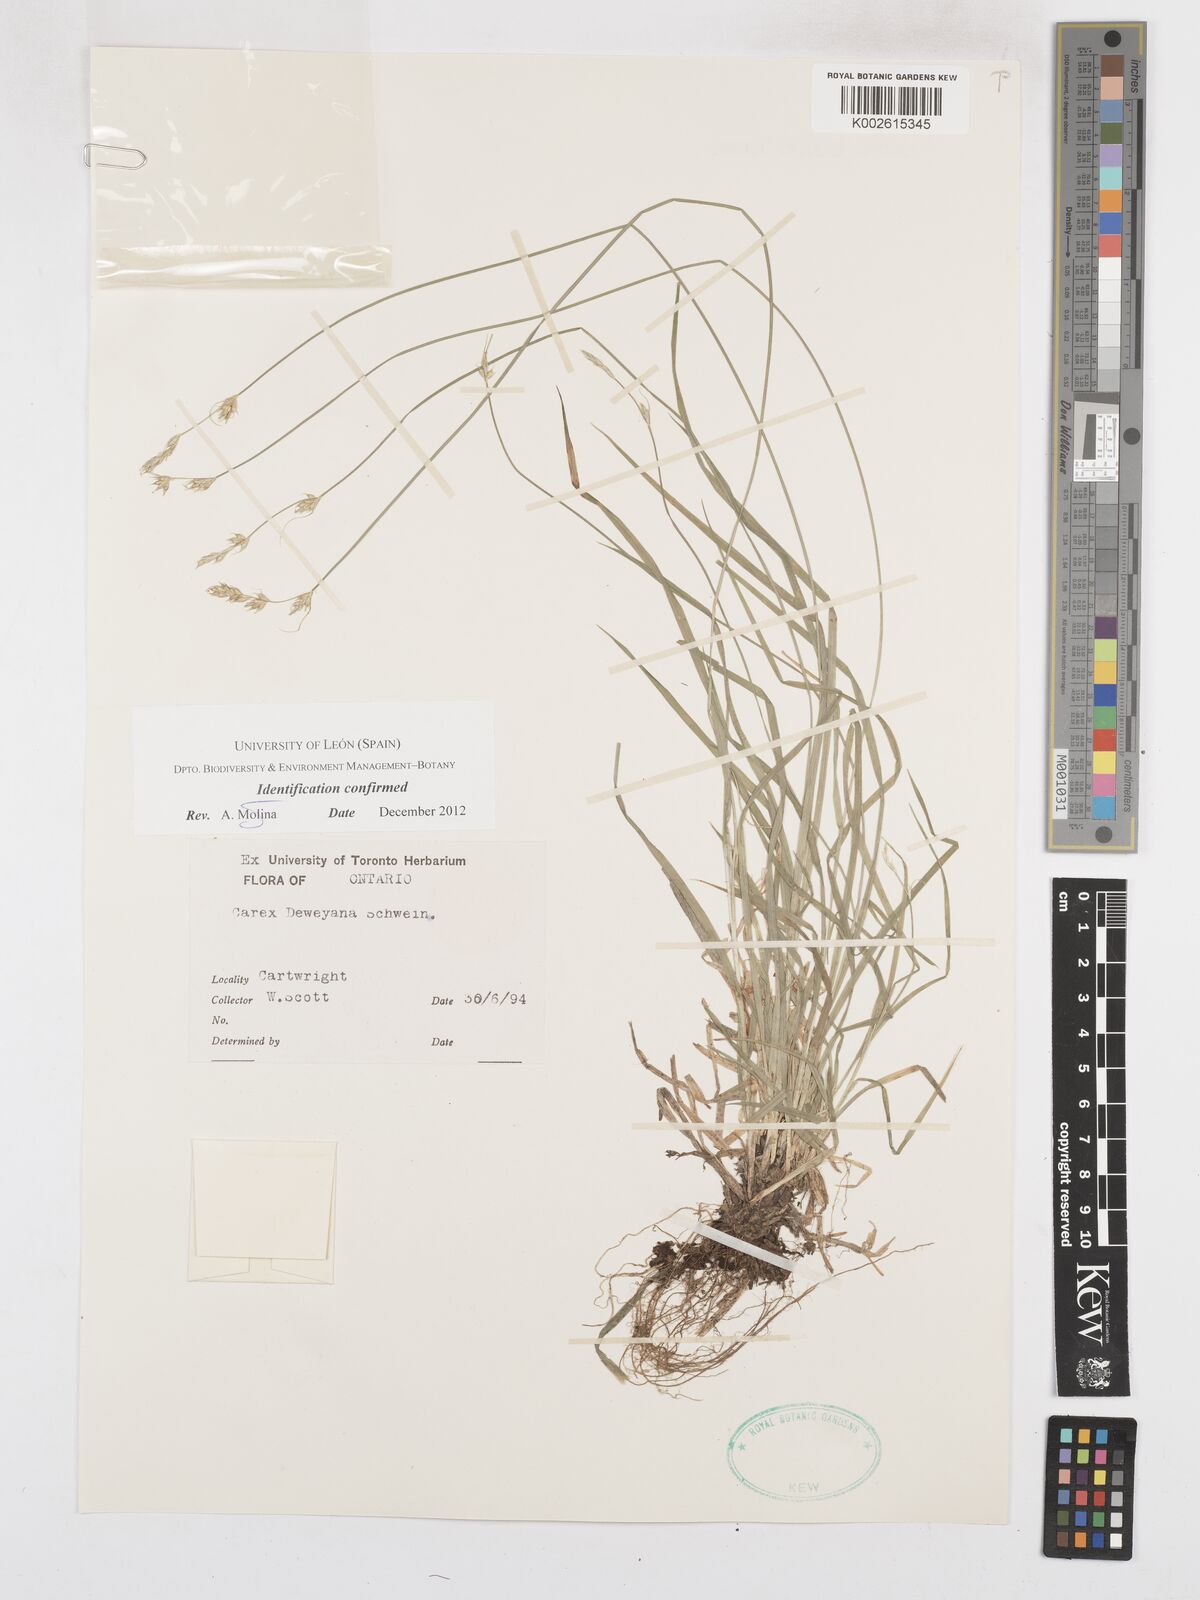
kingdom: Plantae
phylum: Tracheophyta
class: Liliopsida
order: Poales
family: Cyperaceae
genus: Carex
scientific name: Carex deweyana
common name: Dewey's sedge
